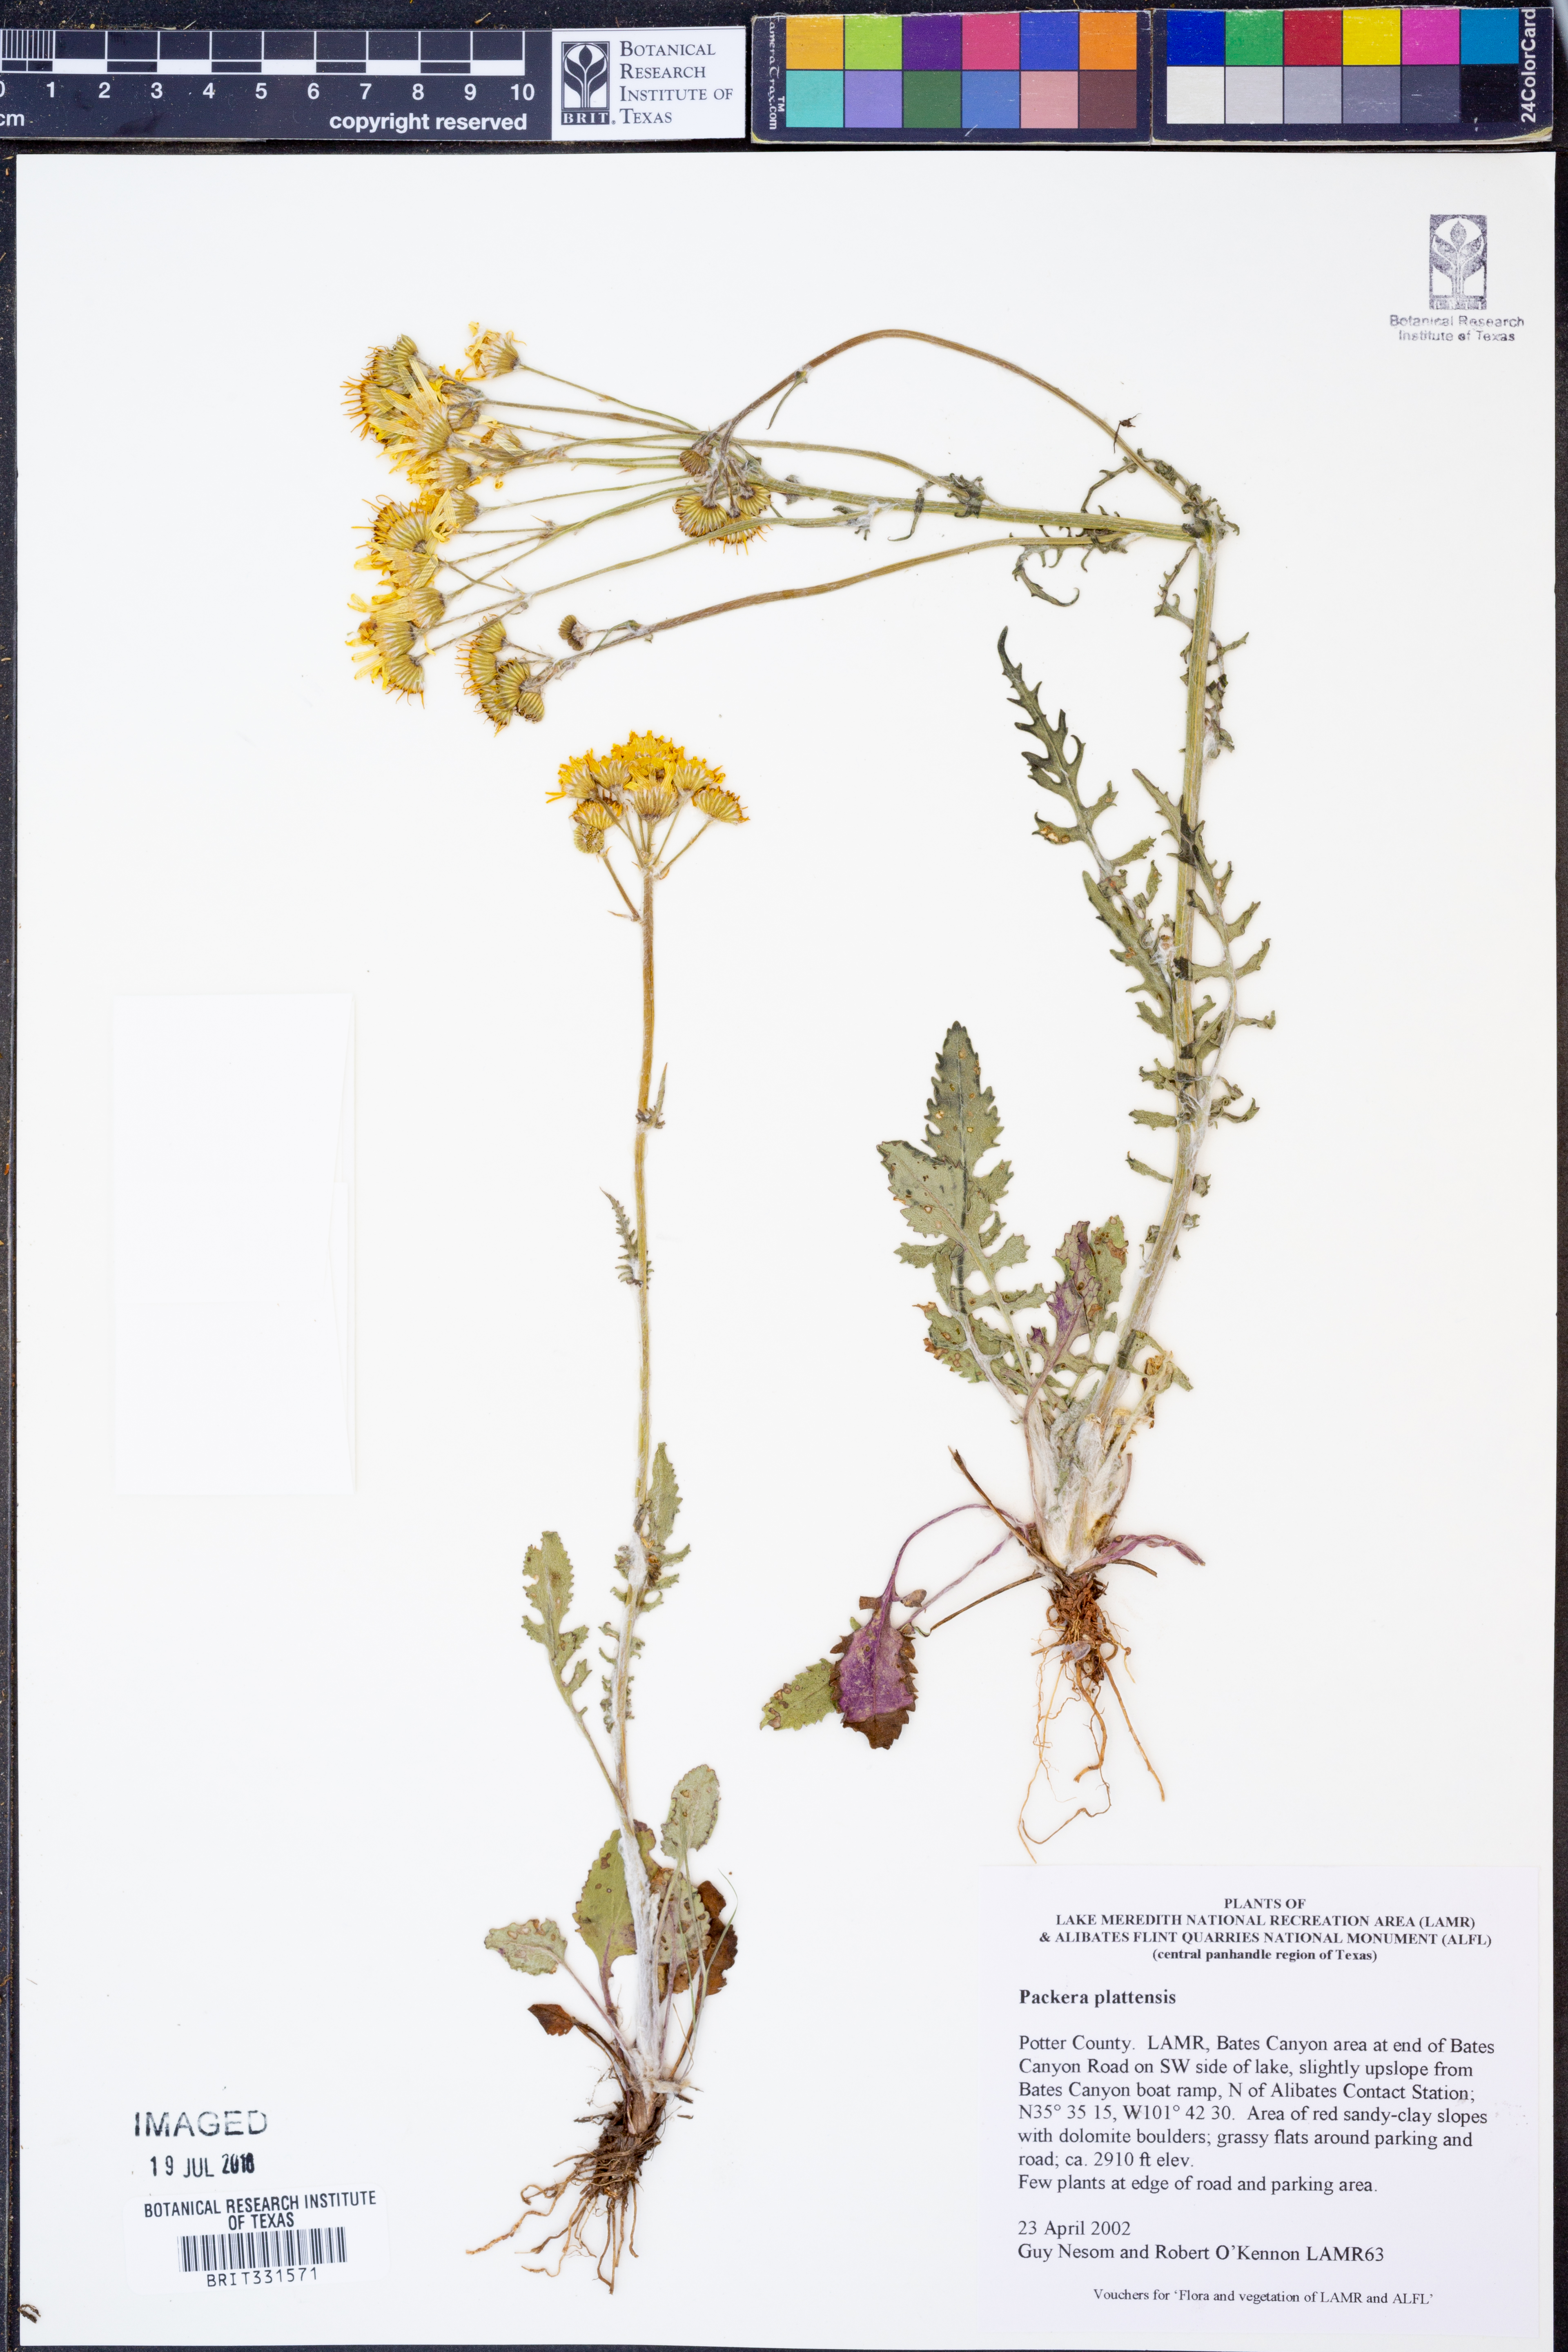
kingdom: Plantae
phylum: Tracheophyta
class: Magnoliopsida
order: Asterales
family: Asteraceae
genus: Packera
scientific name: Packera plattensis
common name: Prairie groundsel
